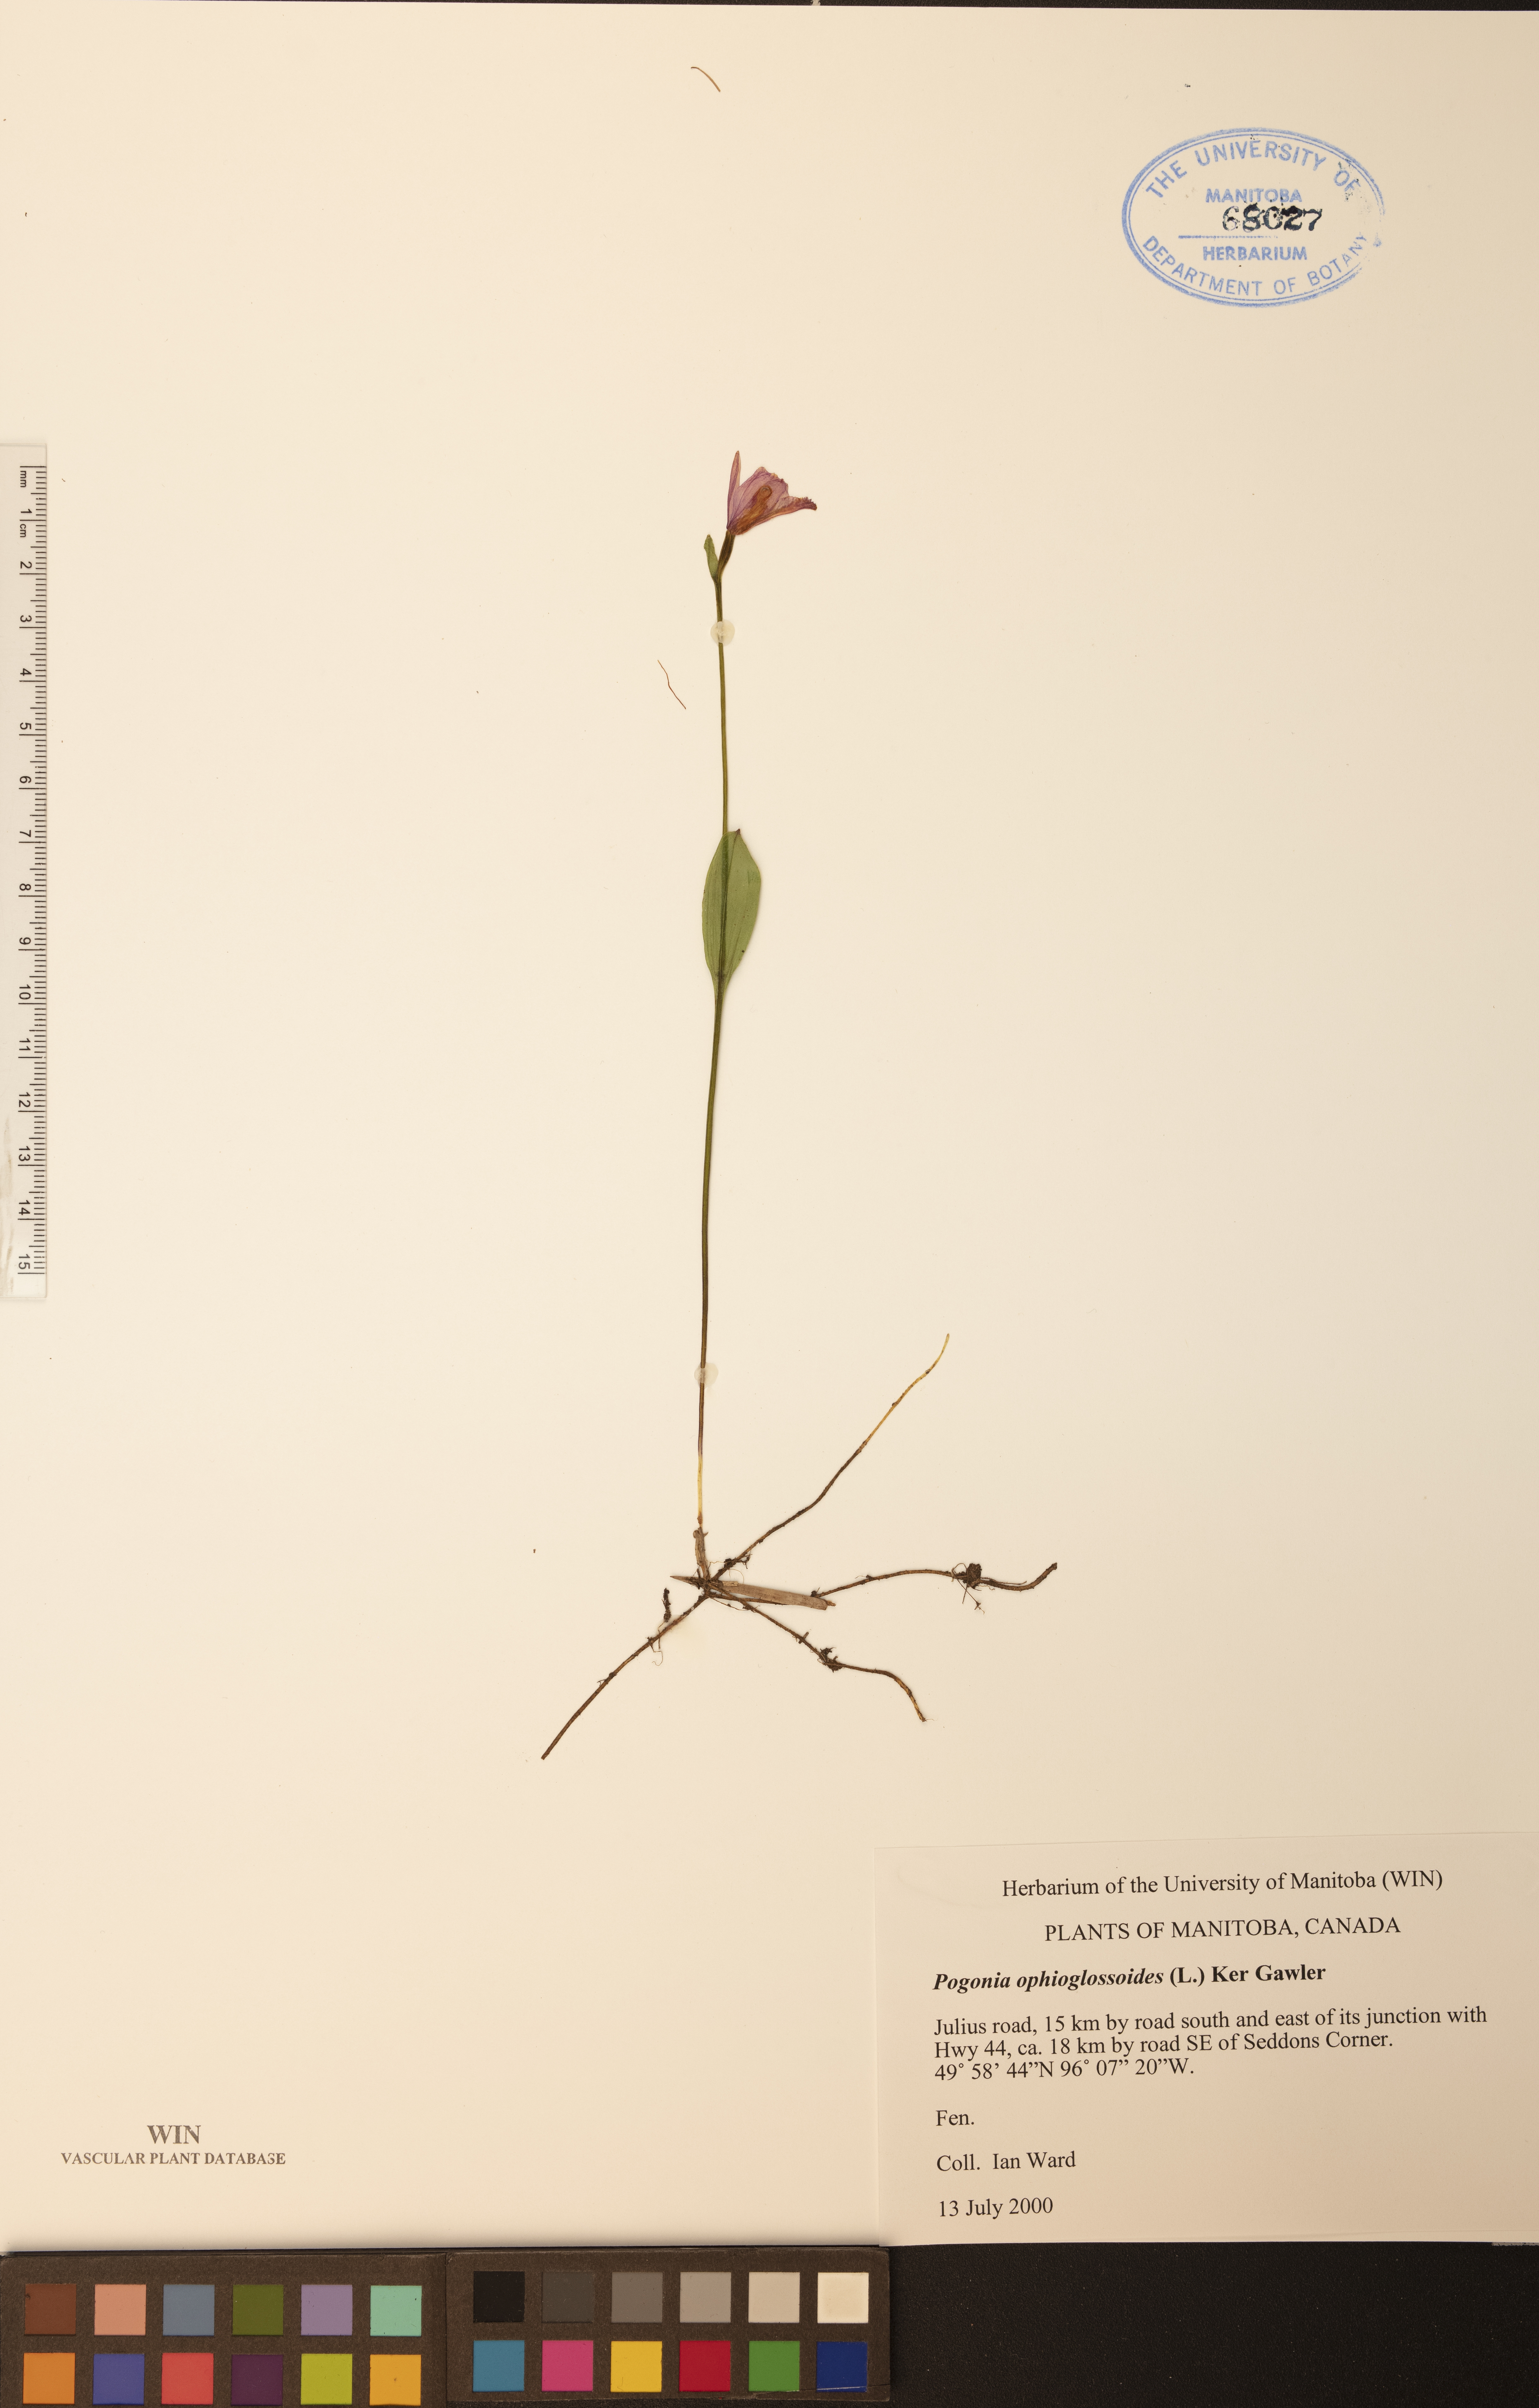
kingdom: Plantae
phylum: Tracheophyta
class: Liliopsida
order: Asparagales
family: Orchidaceae
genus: Pogonia
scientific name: Pogonia ophioglossoides
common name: Rose pogonia
